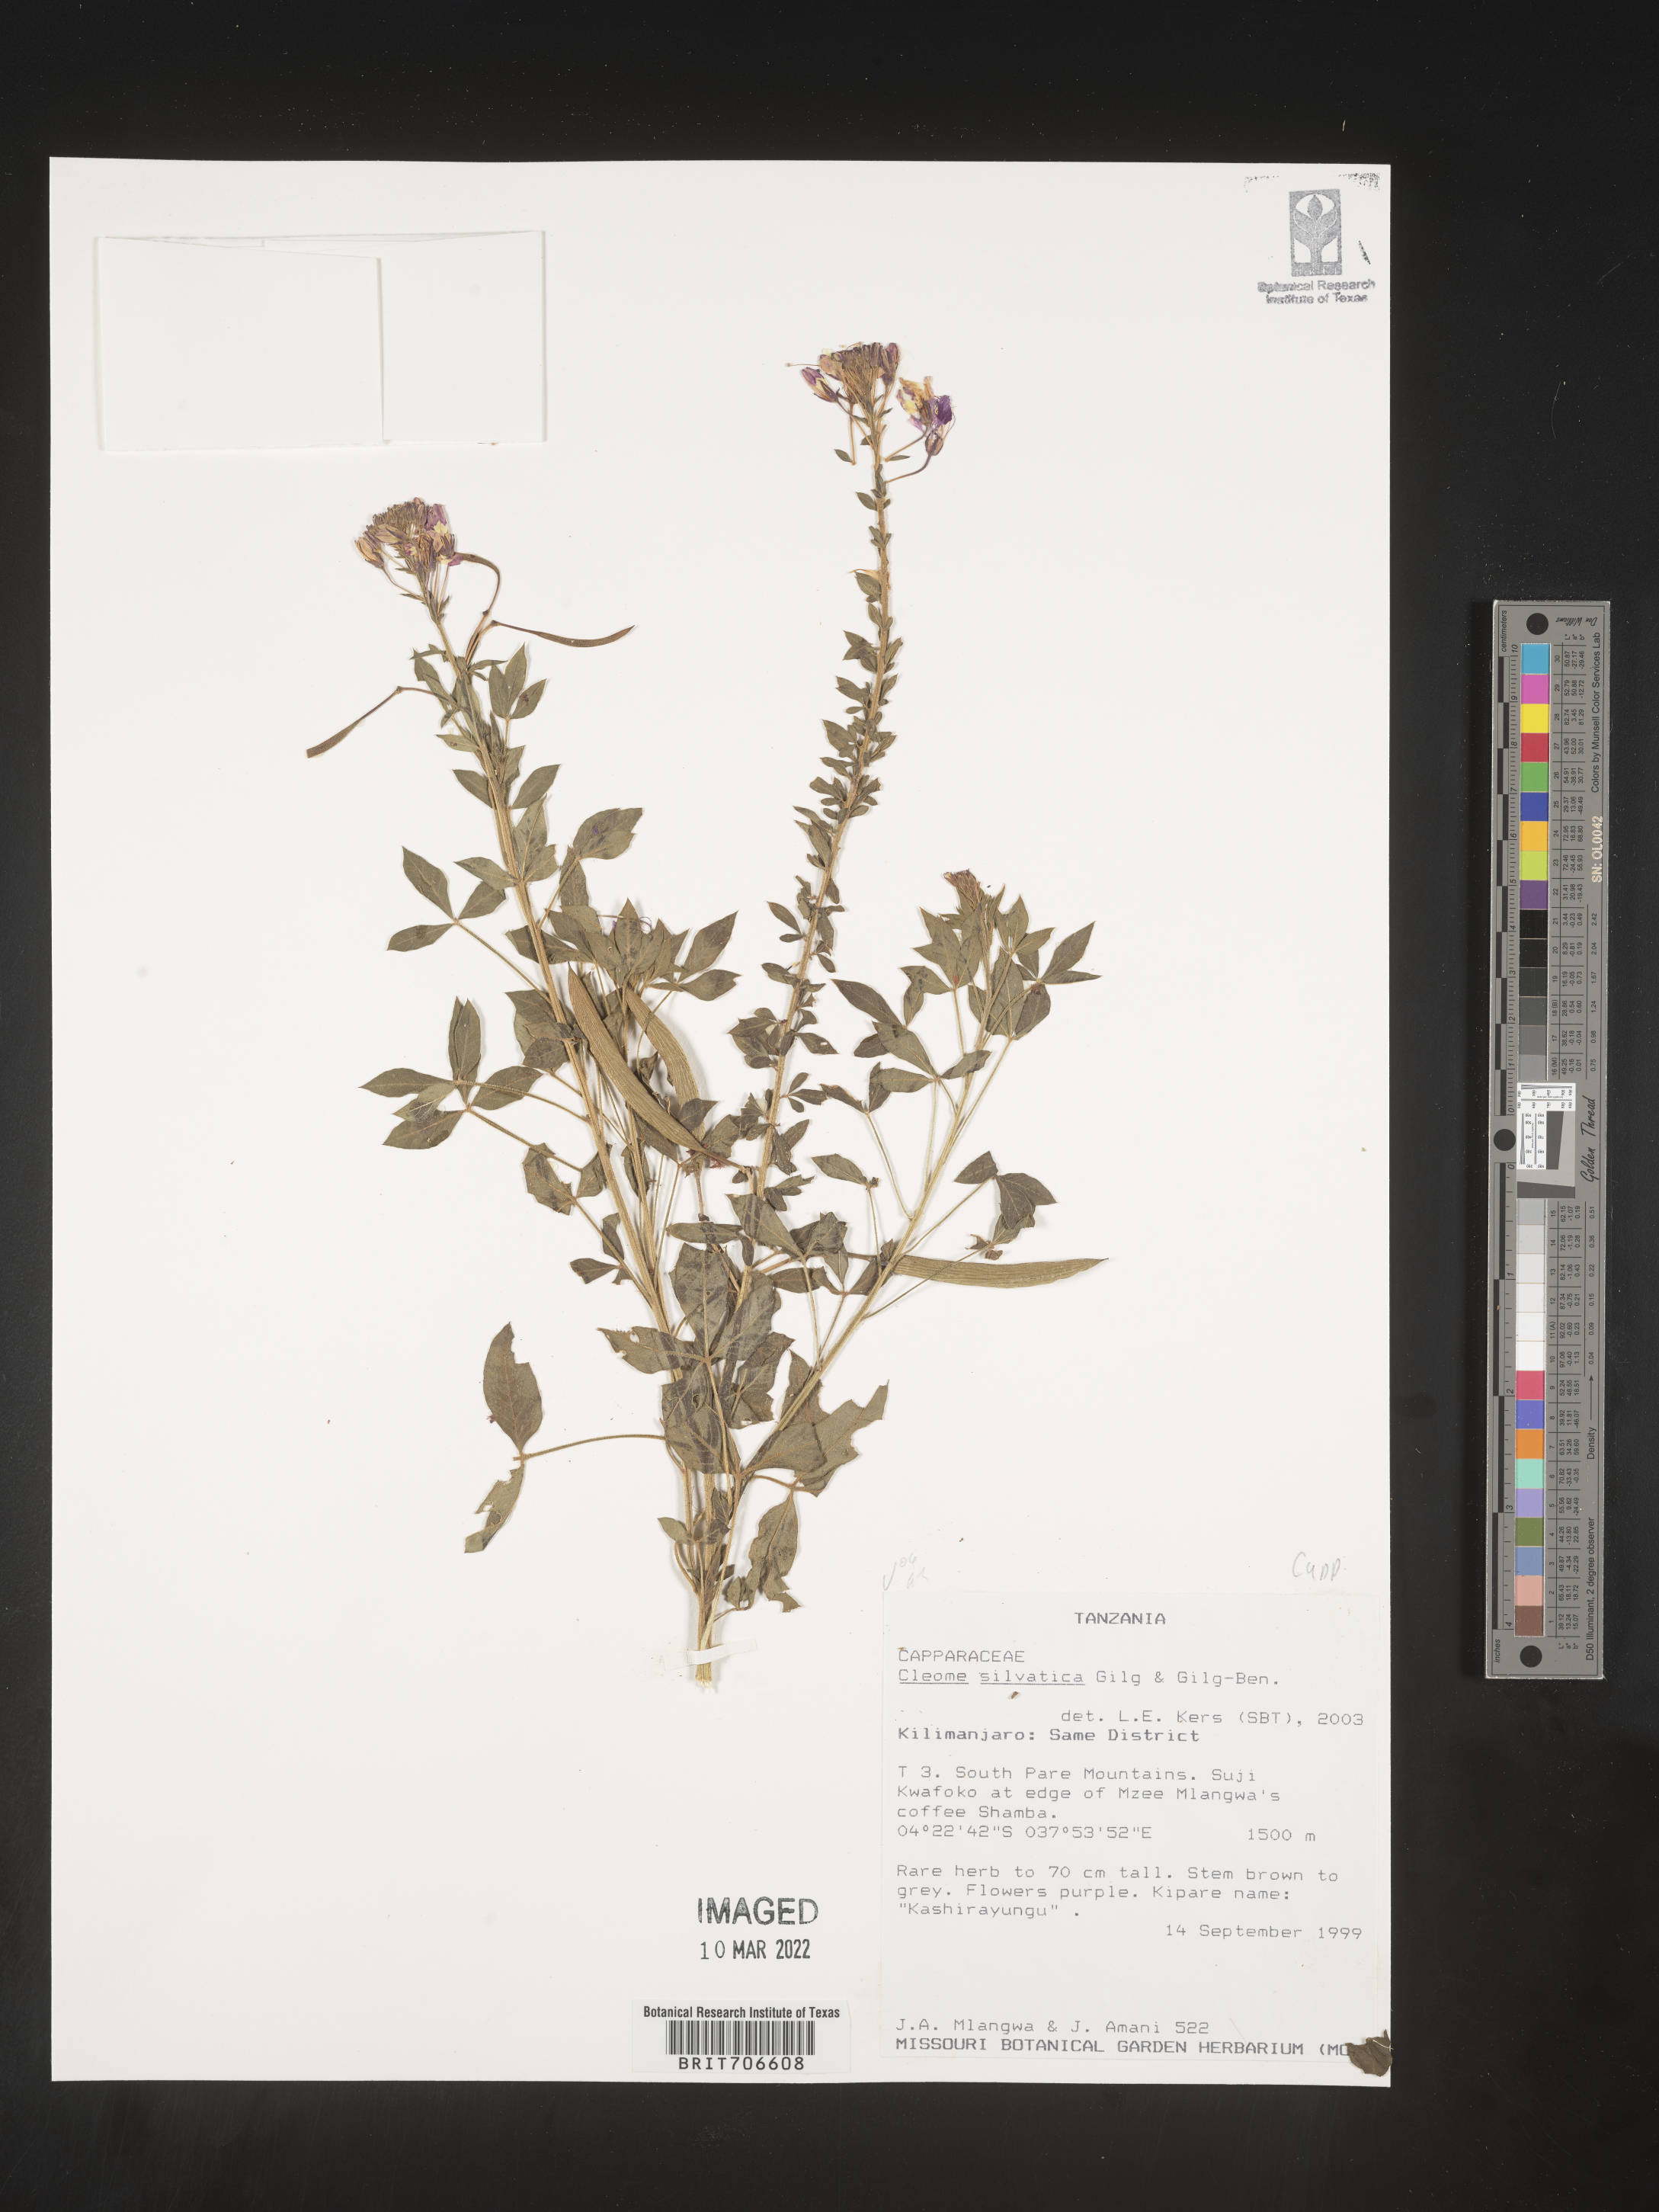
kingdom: Plantae
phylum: Tracheophyta
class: Magnoliopsida
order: Brassicales
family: Cleomaceae
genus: Cleome
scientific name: Cleome
